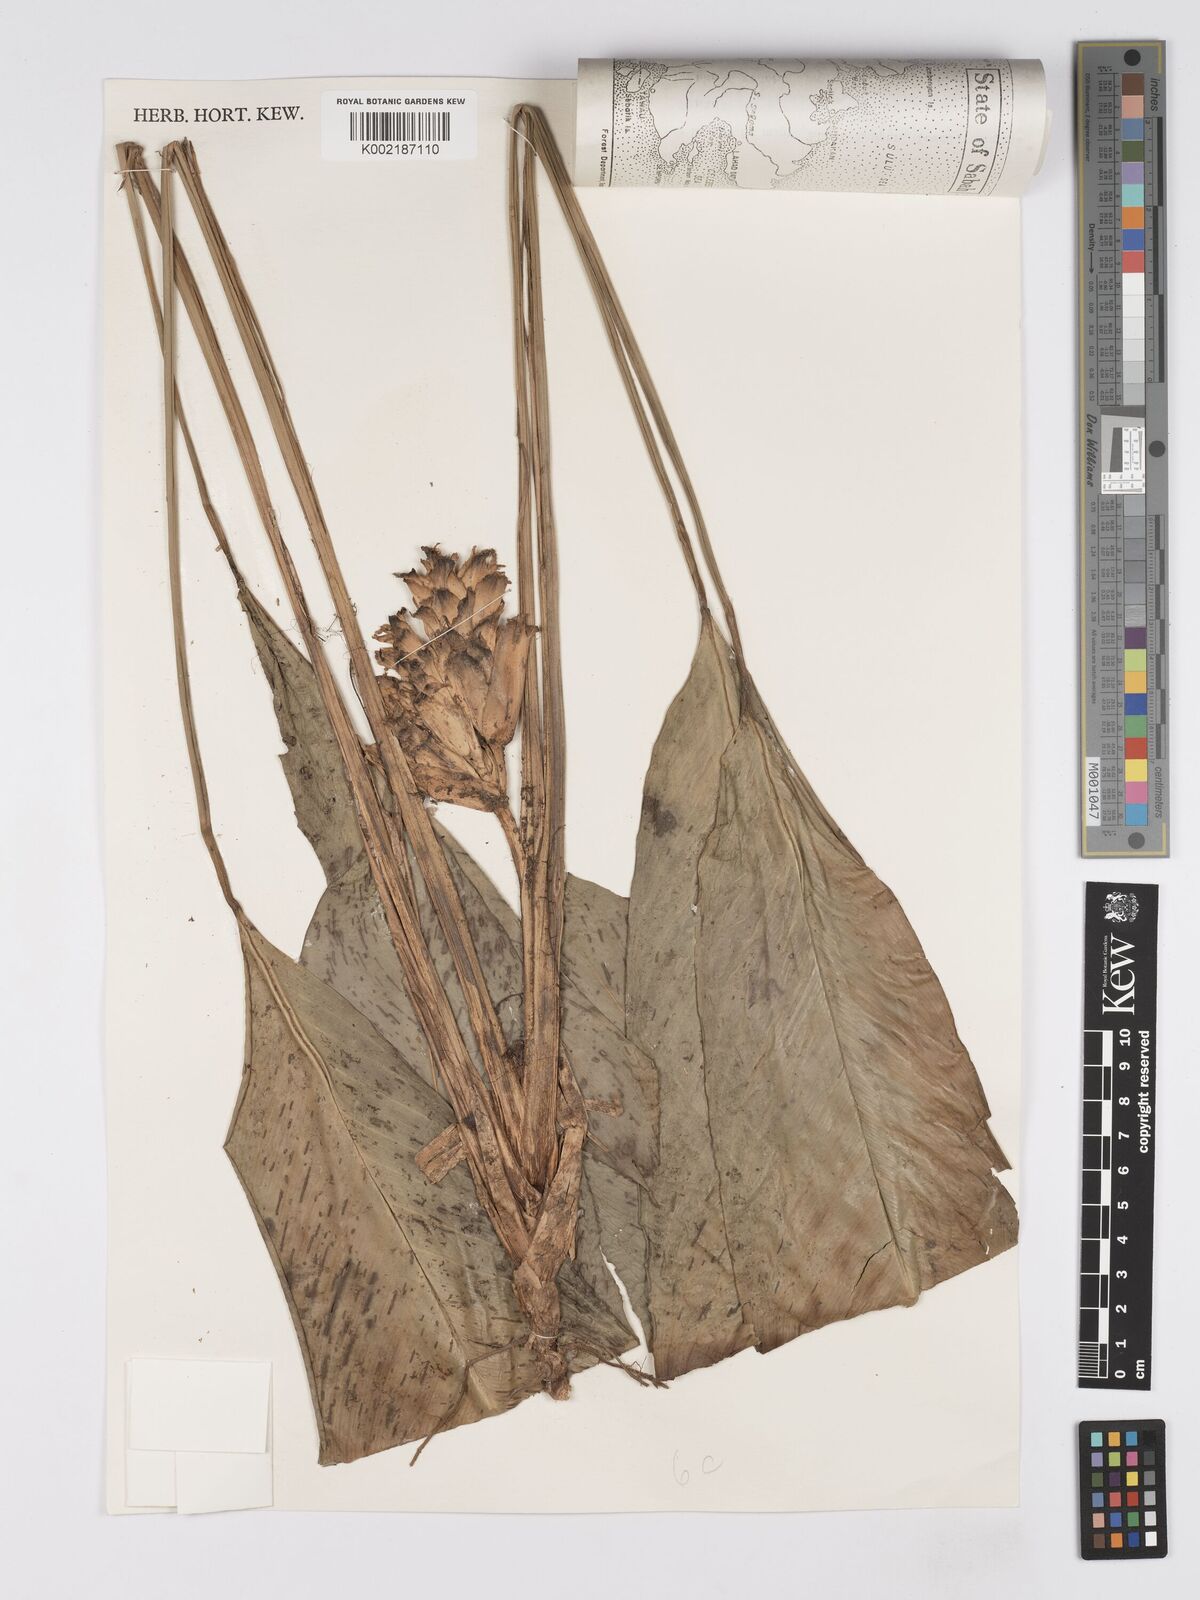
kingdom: Plantae
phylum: Tracheophyta
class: Liliopsida
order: Zingiberales
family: Marantaceae
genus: Phrynium
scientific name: Phrynium maximum
